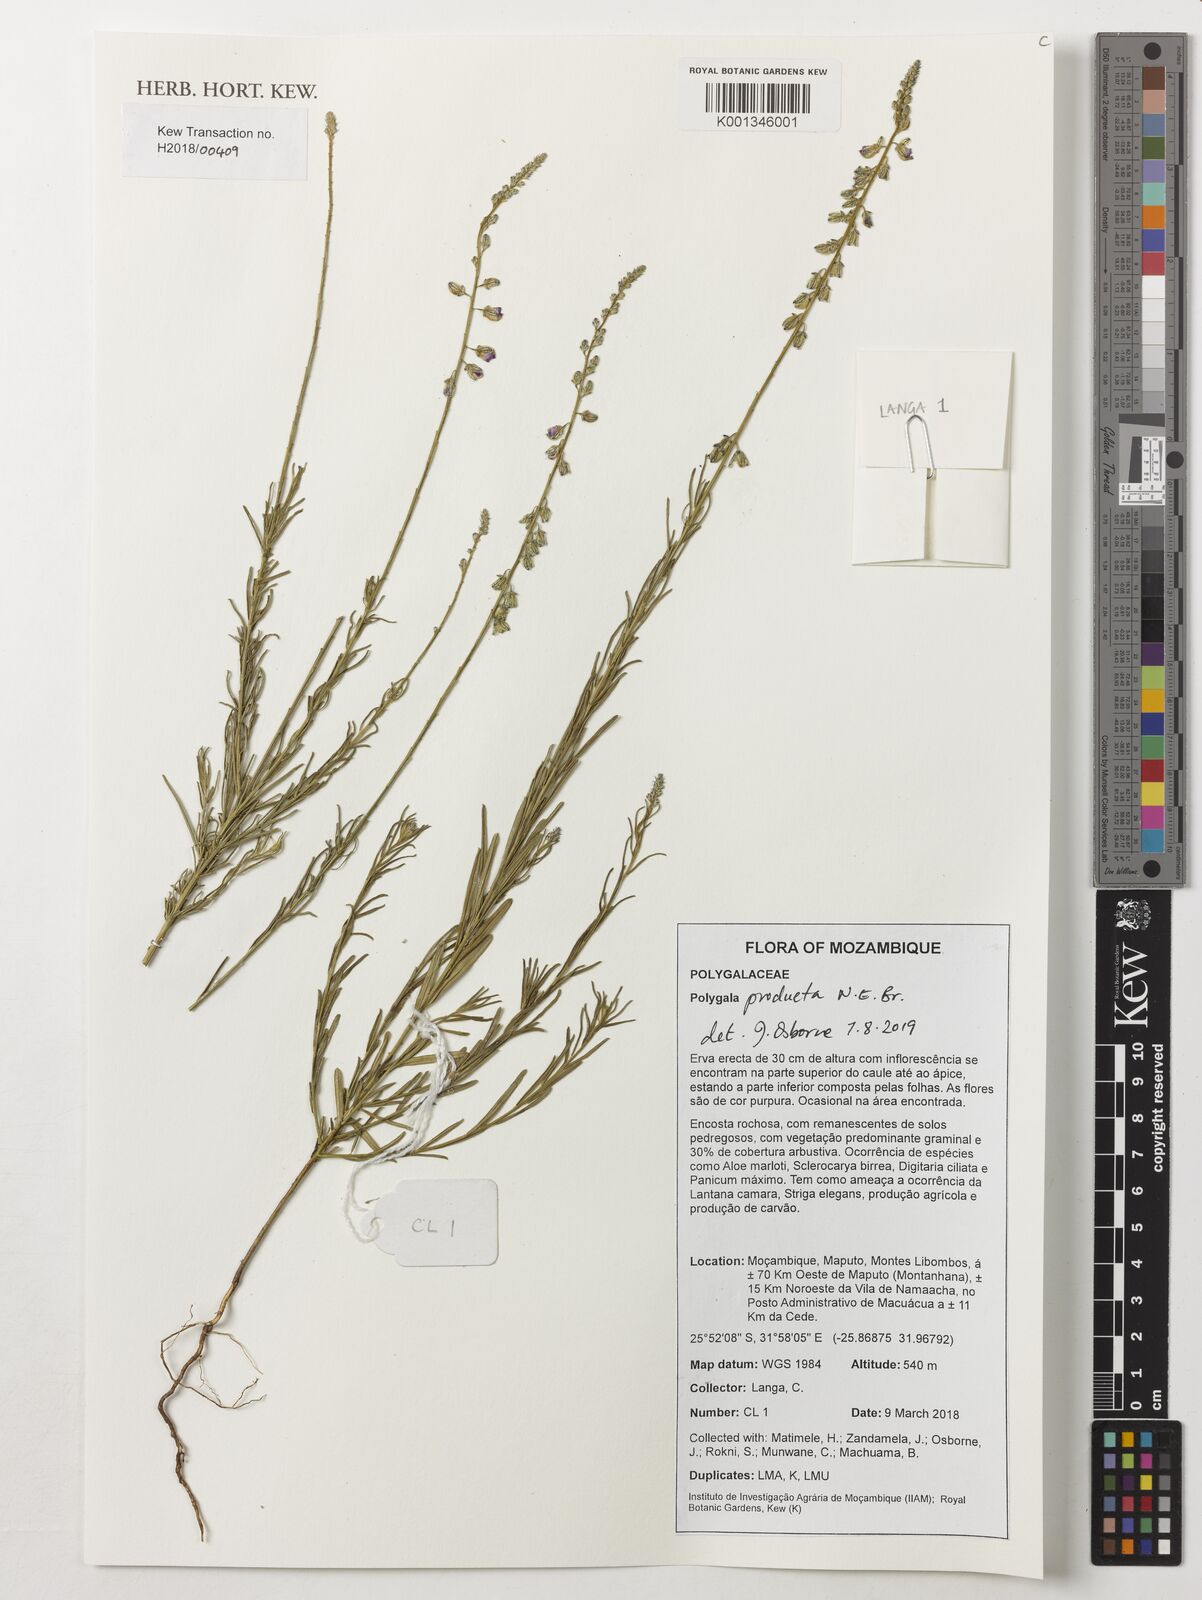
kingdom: Plantae
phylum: Tracheophyta
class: Magnoliopsida
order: Fabales
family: Polygalaceae
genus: Polygala
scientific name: Polygala producta
